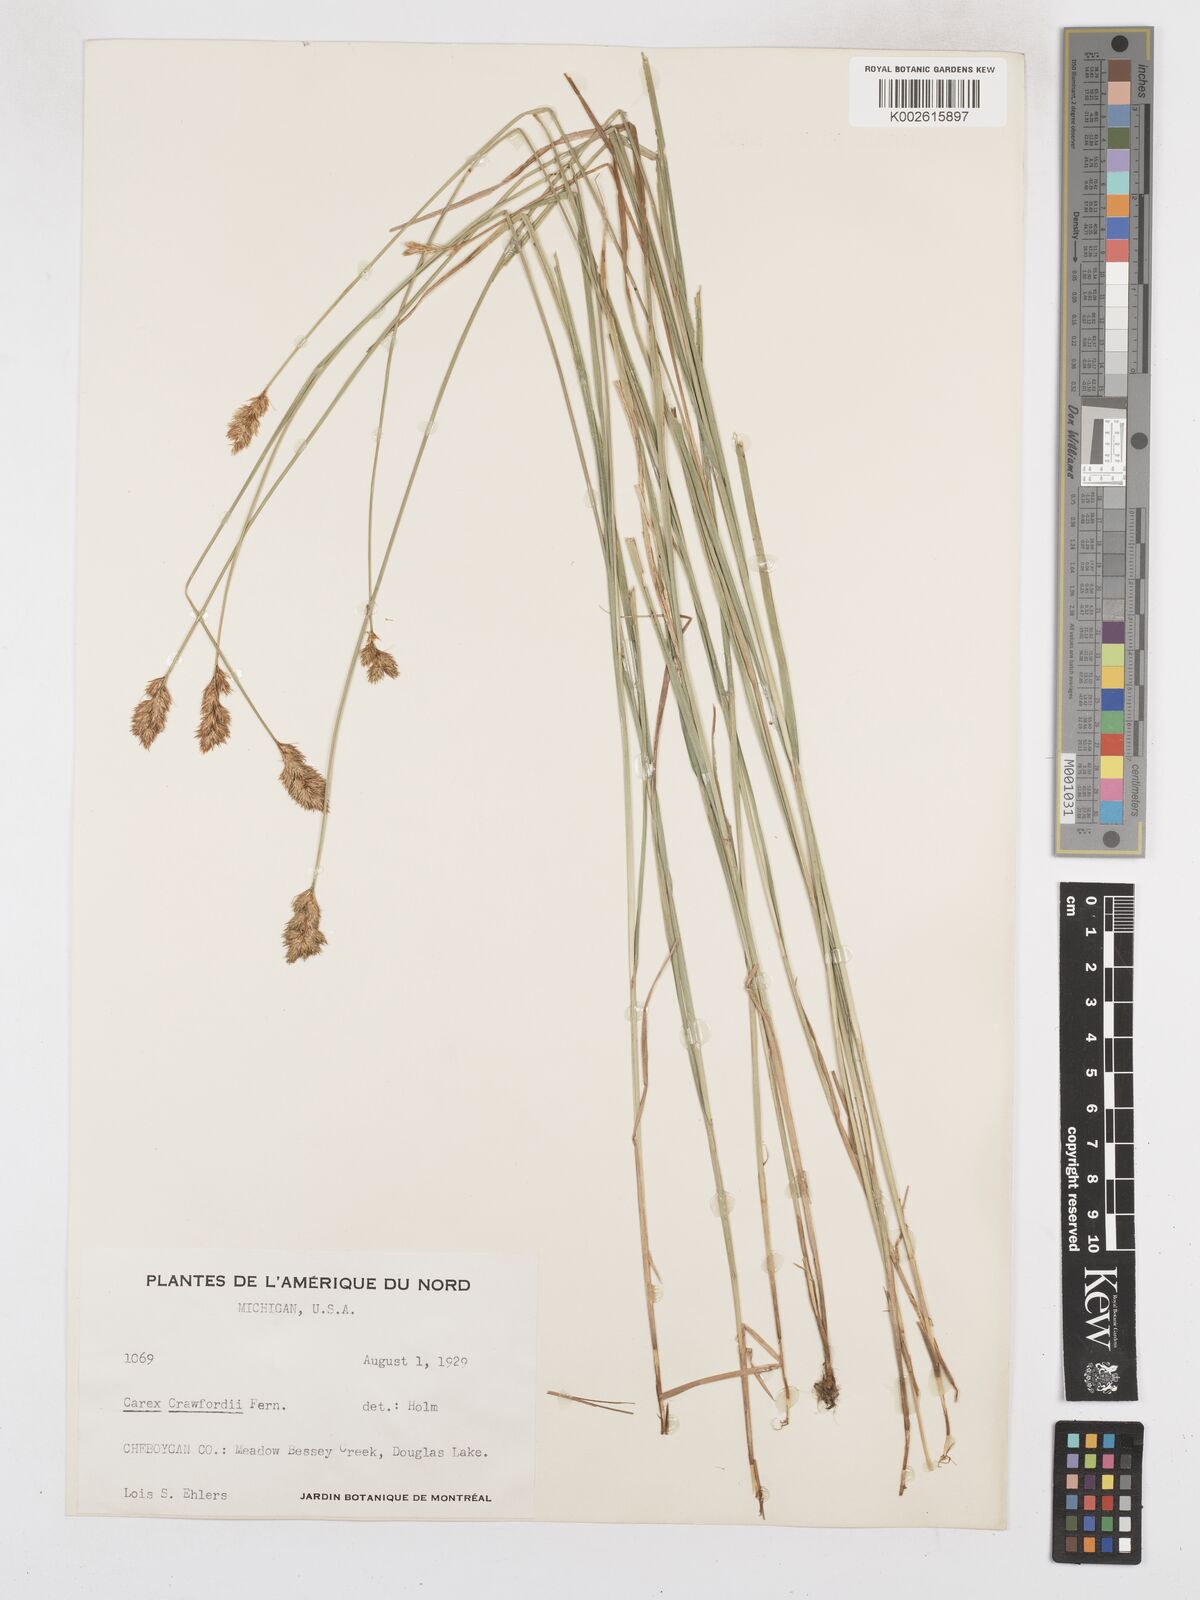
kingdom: Plantae
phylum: Tracheophyta
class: Liliopsida
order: Poales
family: Cyperaceae
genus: Carex
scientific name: Carex crawfordii
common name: Crawford's sedge
